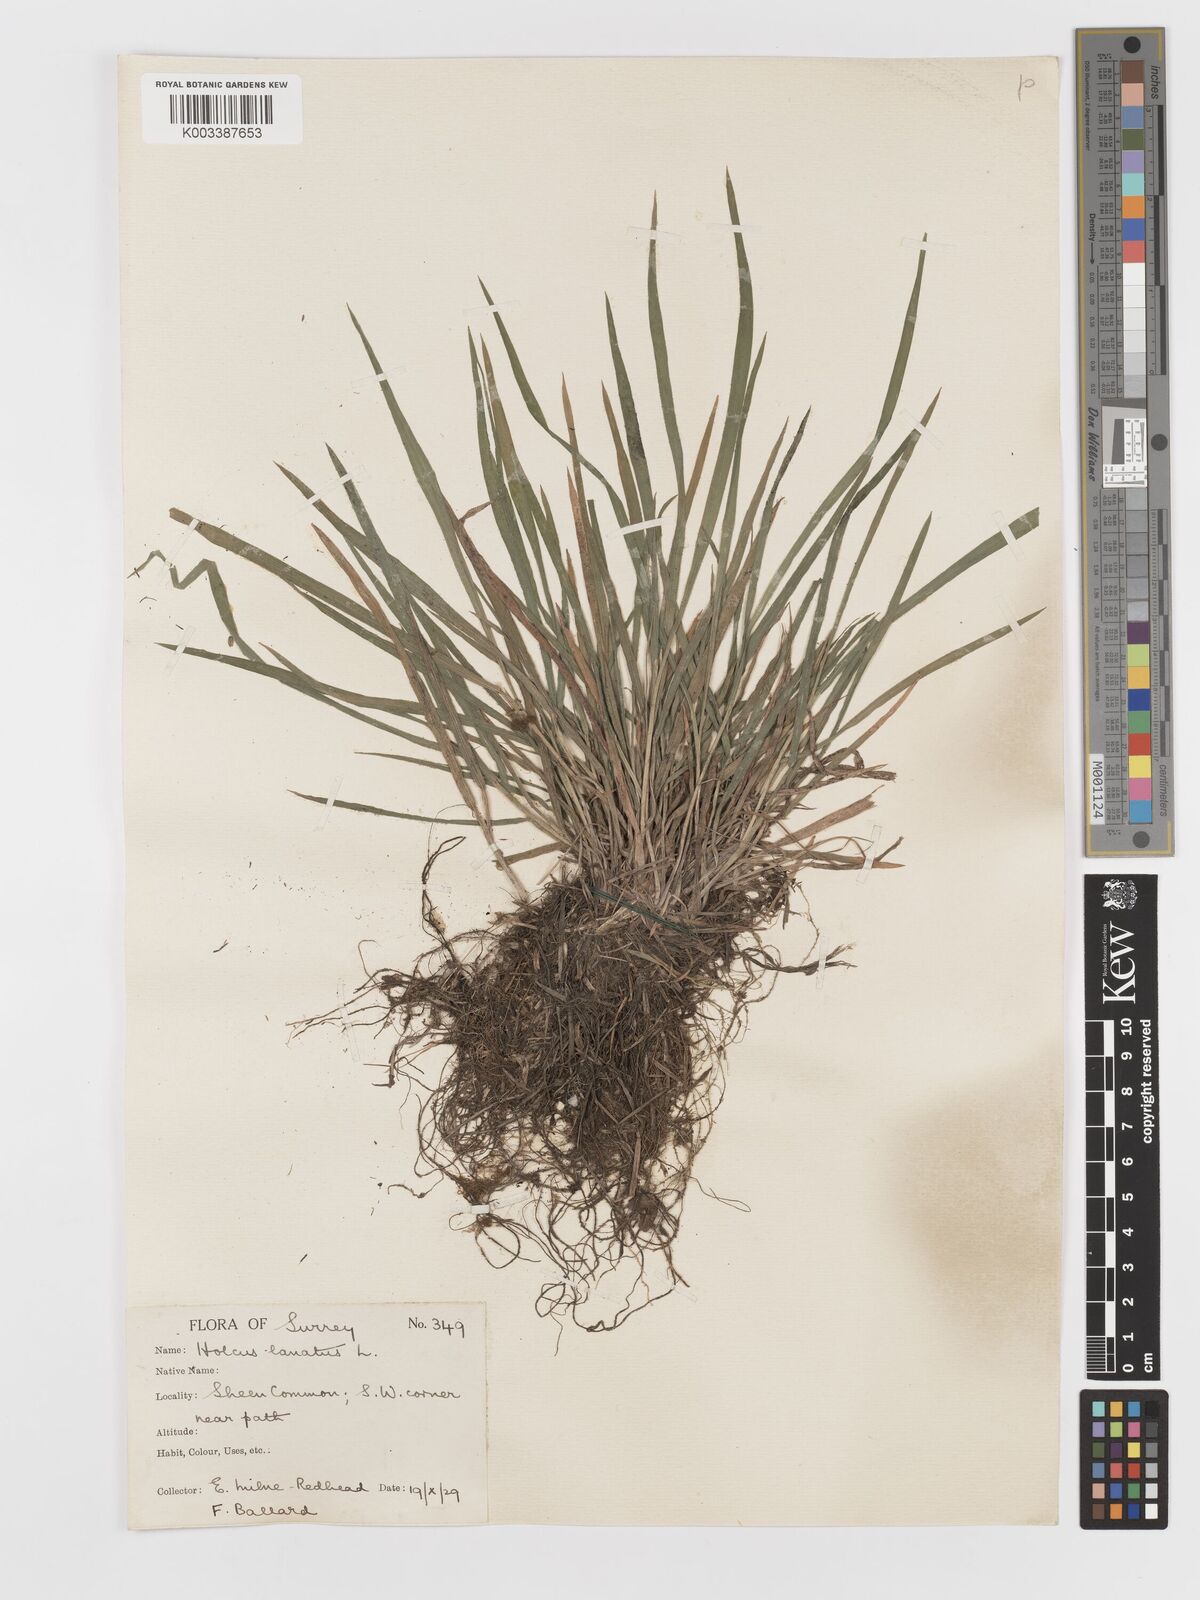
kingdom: Plantae
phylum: Tracheophyta
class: Liliopsida
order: Poales
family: Poaceae
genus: Holcus
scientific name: Holcus lanatus
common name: Yorkshire-fog
